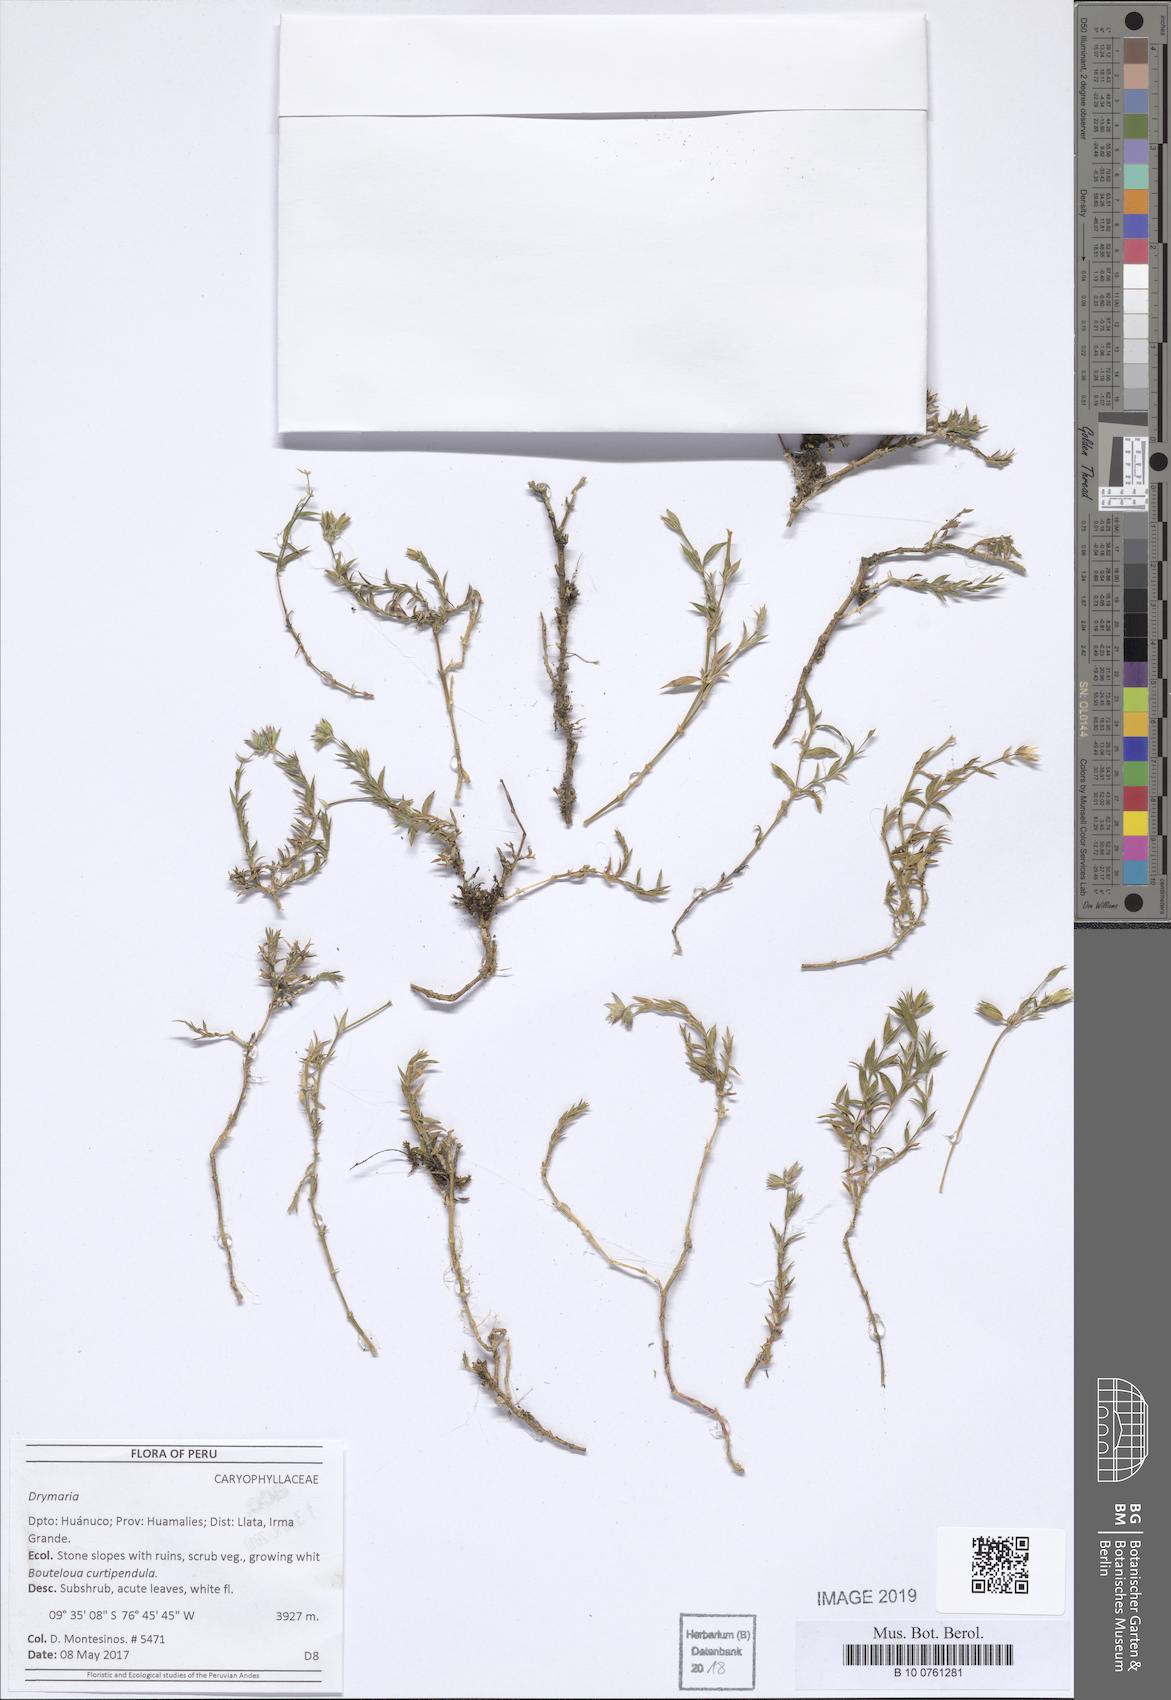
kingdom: Plantae
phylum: Tracheophyta
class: Magnoliopsida
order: Caryophyllales
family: Caryophyllaceae
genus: Drymaria
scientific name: Drymaria
